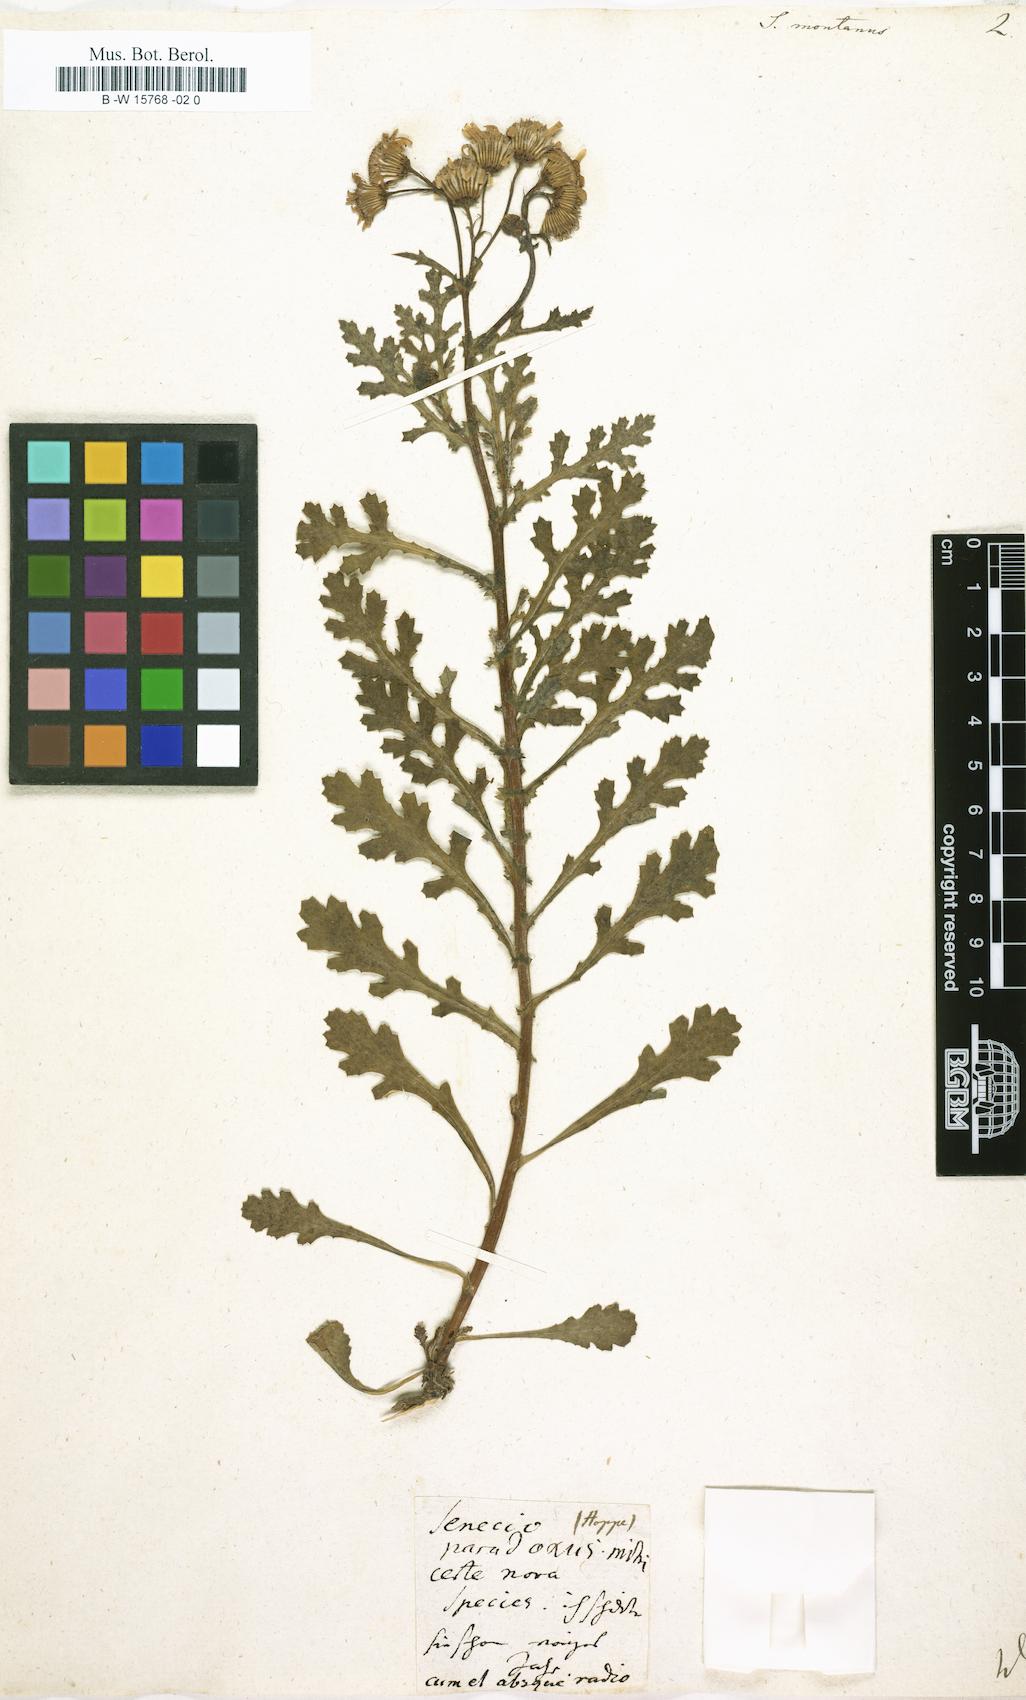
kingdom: Plantae
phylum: Tracheophyta
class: Magnoliopsida
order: Asterales
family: Asteraceae
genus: Senecio
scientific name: Senecio montanus
